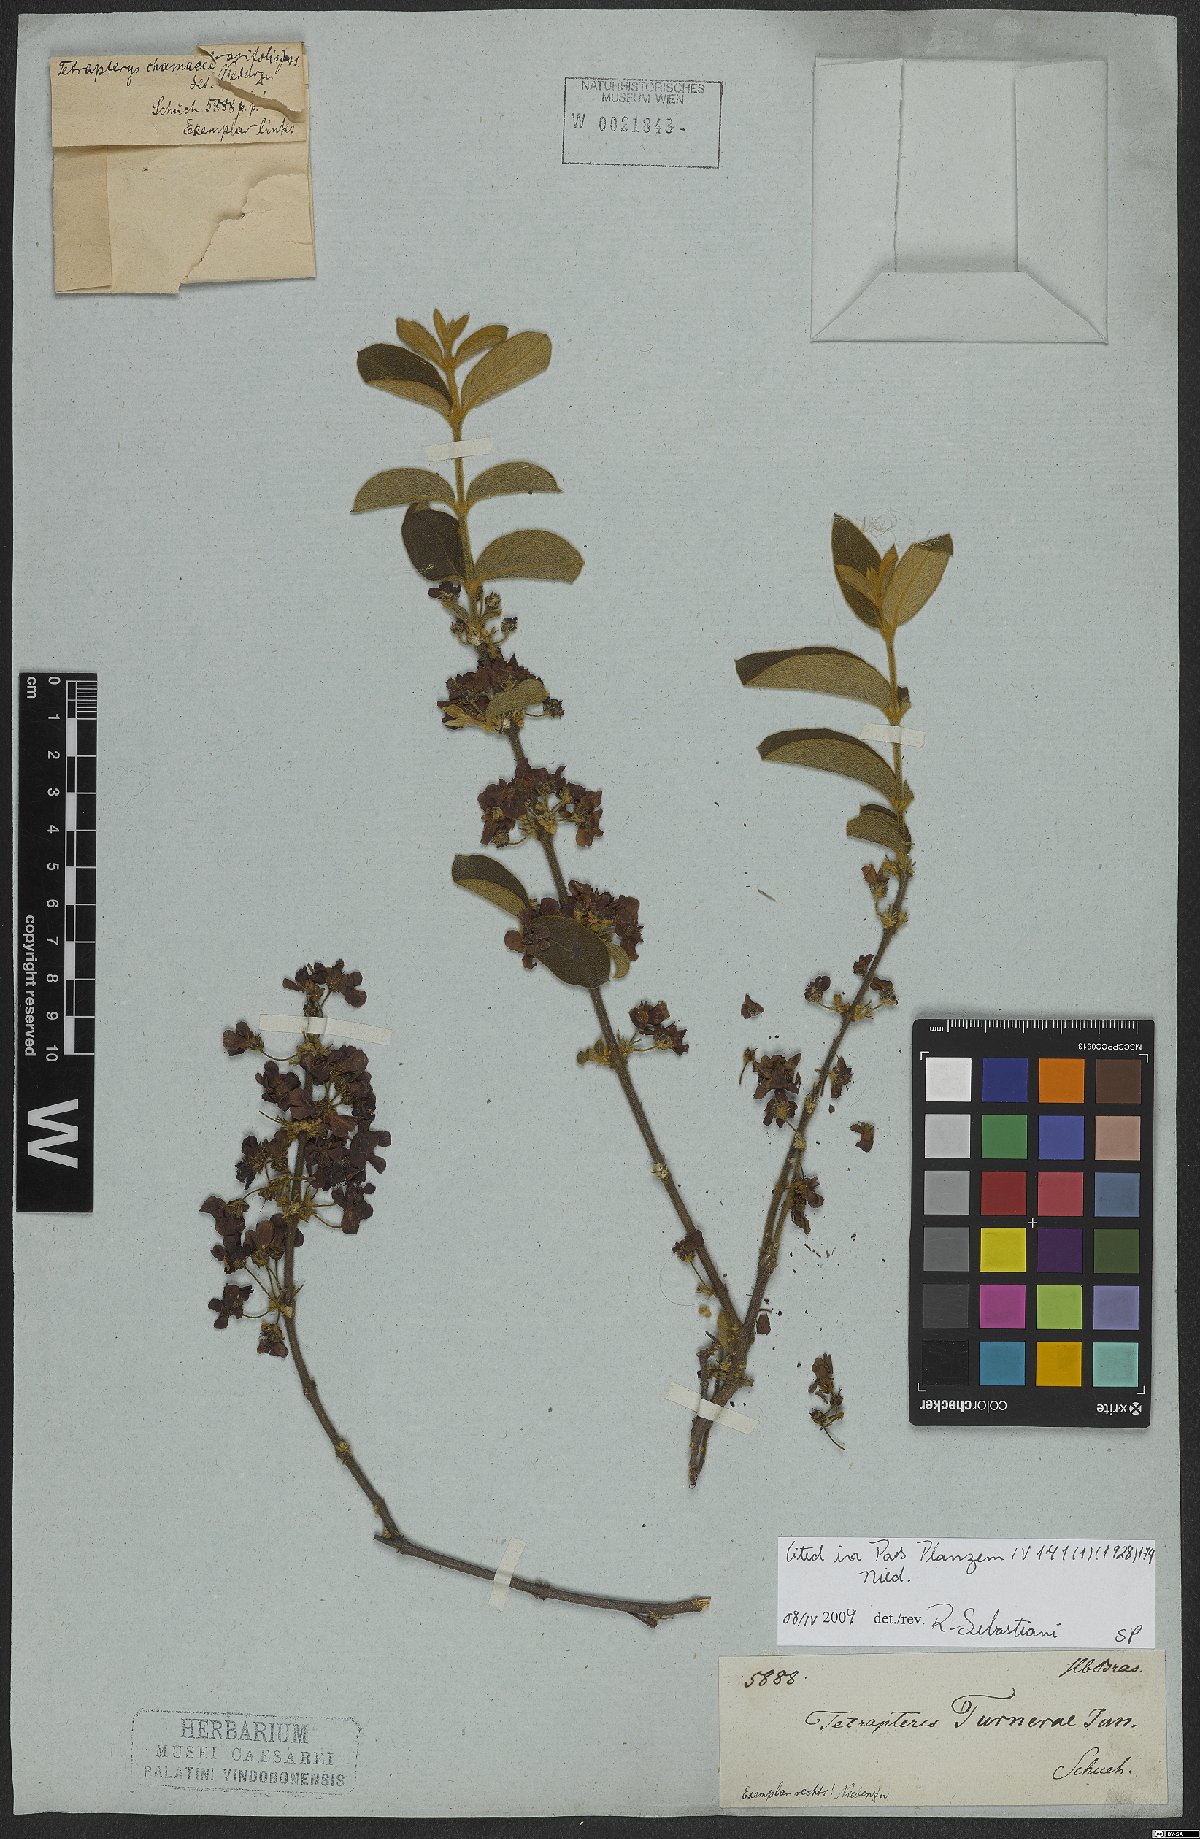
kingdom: Plantae
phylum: Tracheophyta
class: Magnoliopsida
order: Malpighiales
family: Malpighiaceae
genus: Glicophyllum
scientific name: Glicophyllum turnerae
